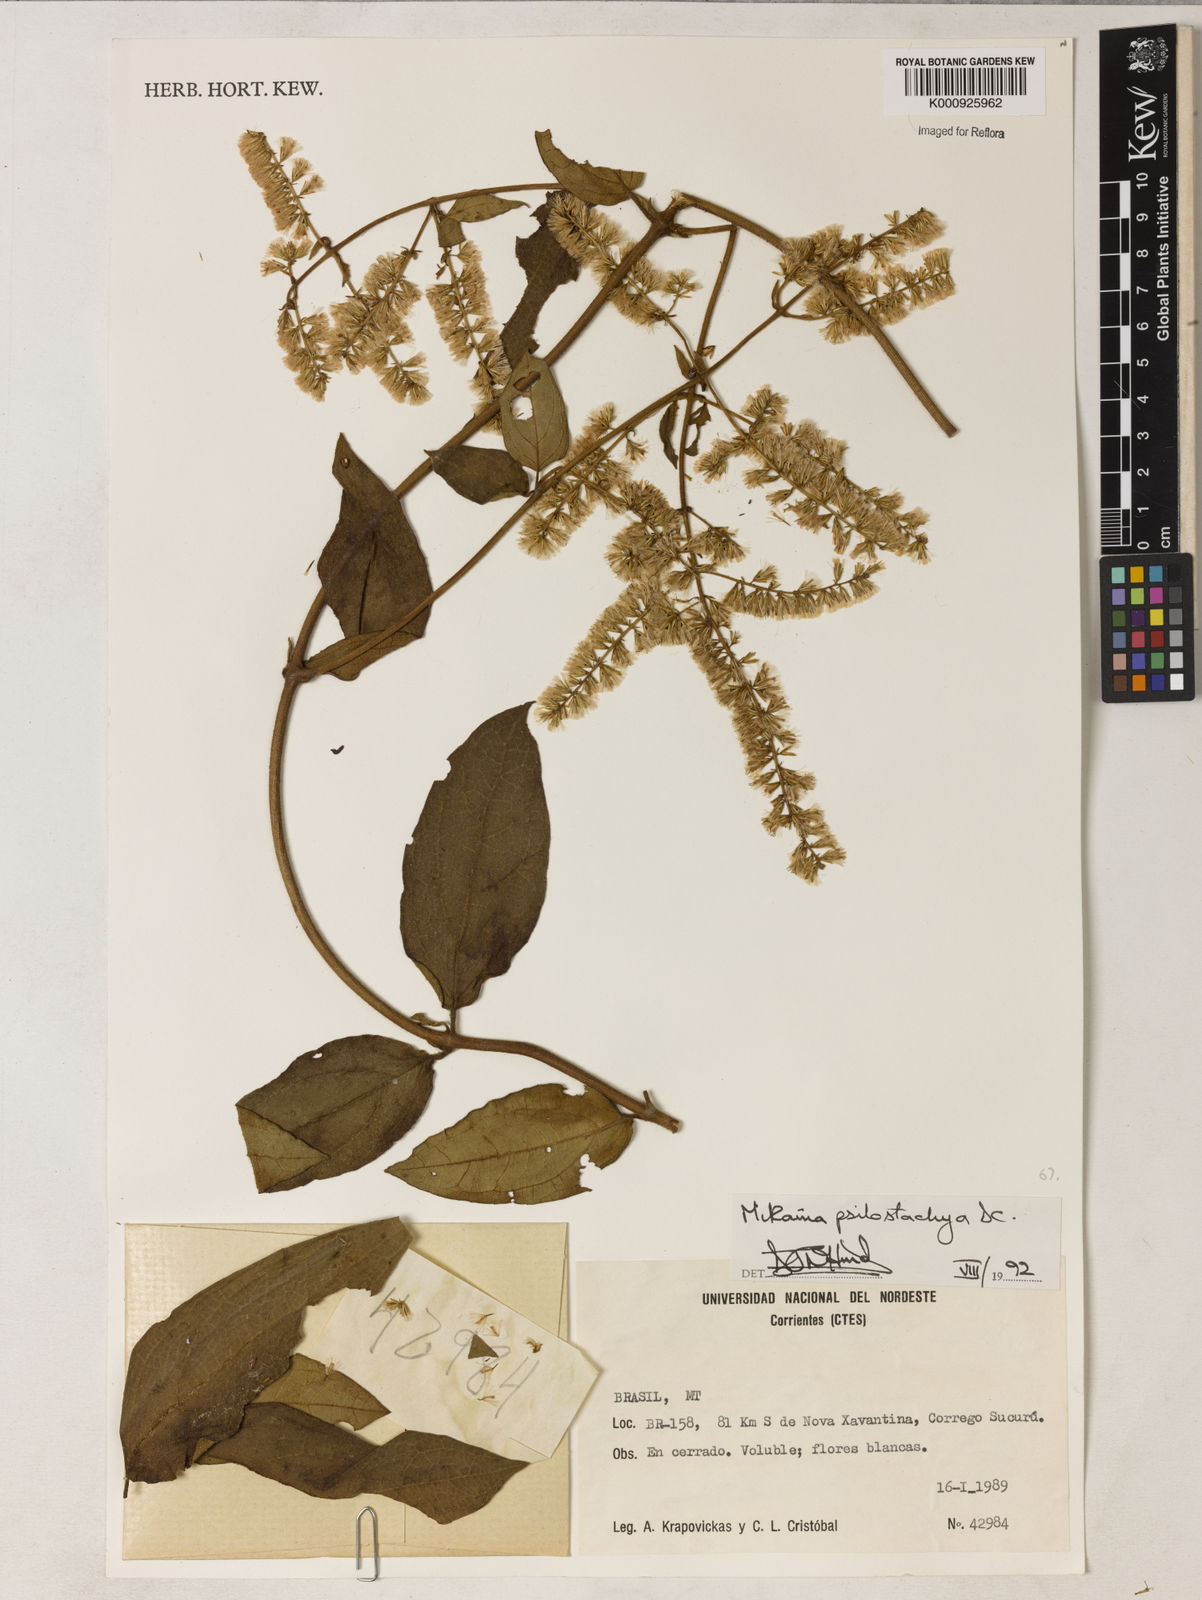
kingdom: Plantae
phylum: Tracheophyta
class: Magnoliopsida
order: Asterales
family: Asteraceae
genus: Mikania
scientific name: Mikania psilostachya
